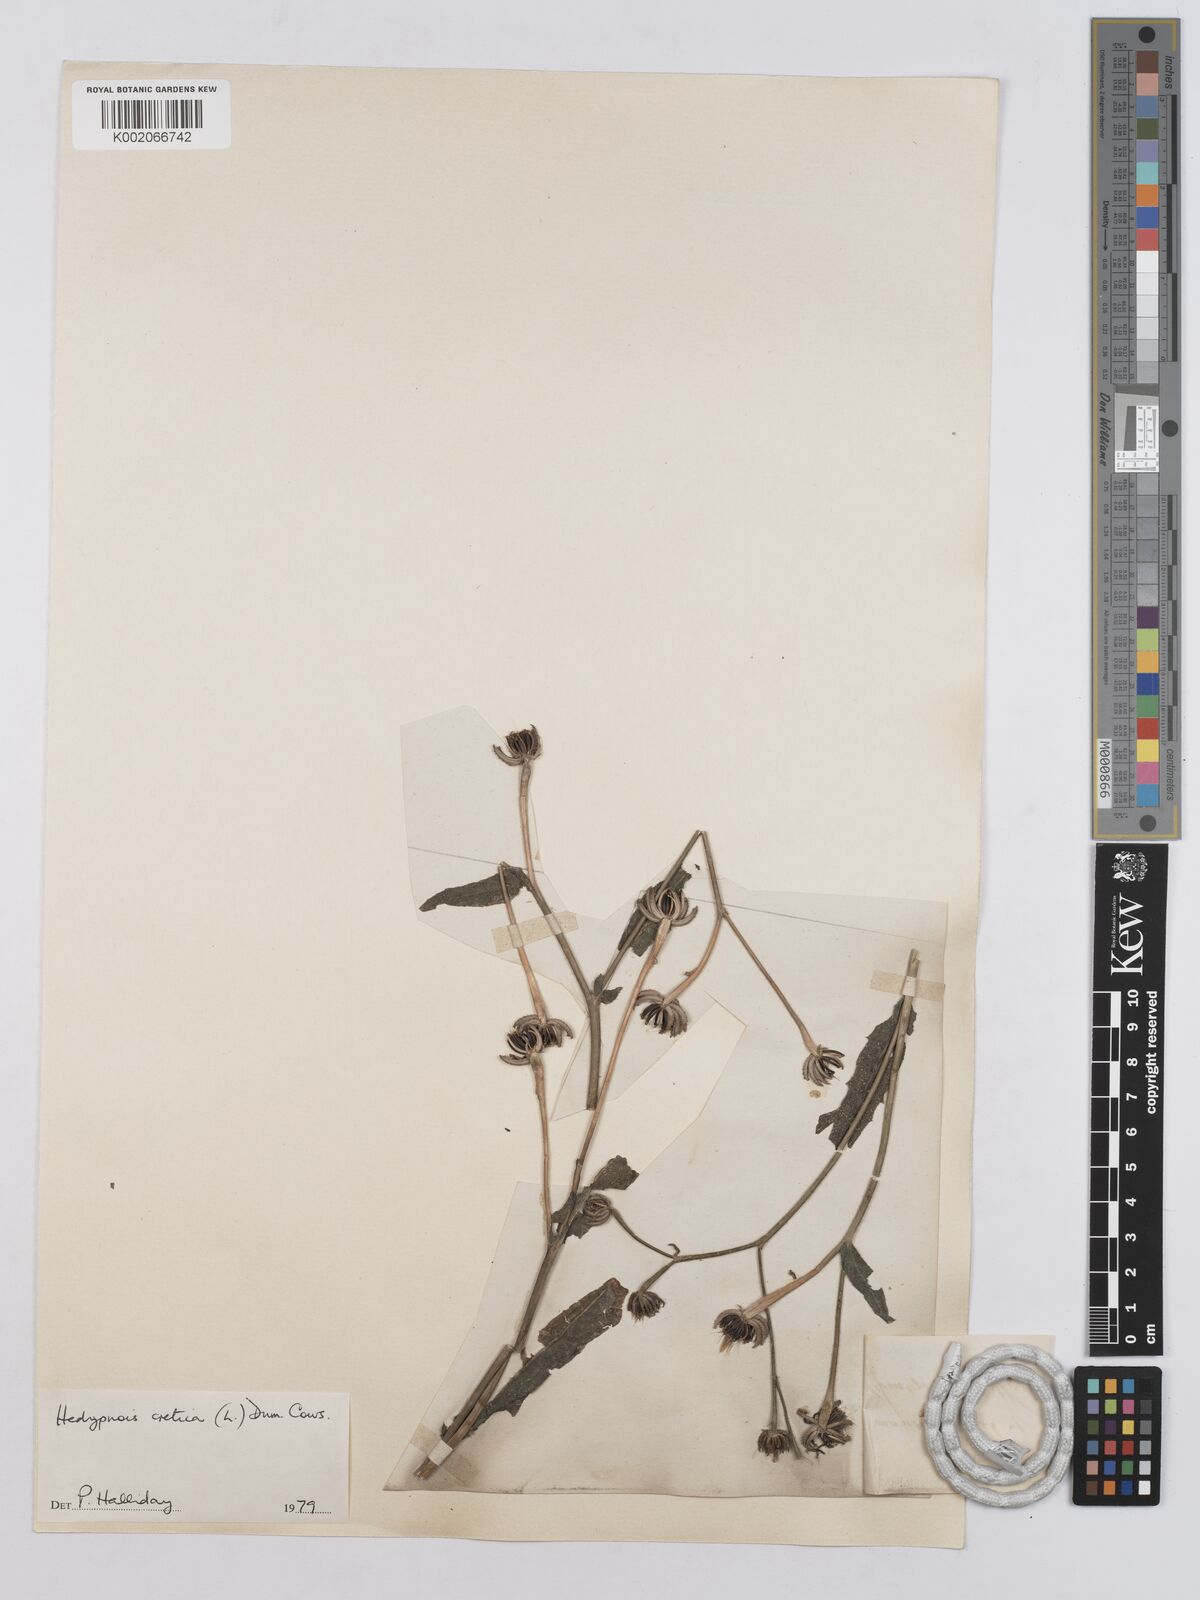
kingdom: Plantae
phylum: Tracheophyta
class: Magnoliopsida
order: Asterales
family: Asteraceae
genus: Hedypnois
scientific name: Hedypnois cretica
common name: Scaly hawkbit
